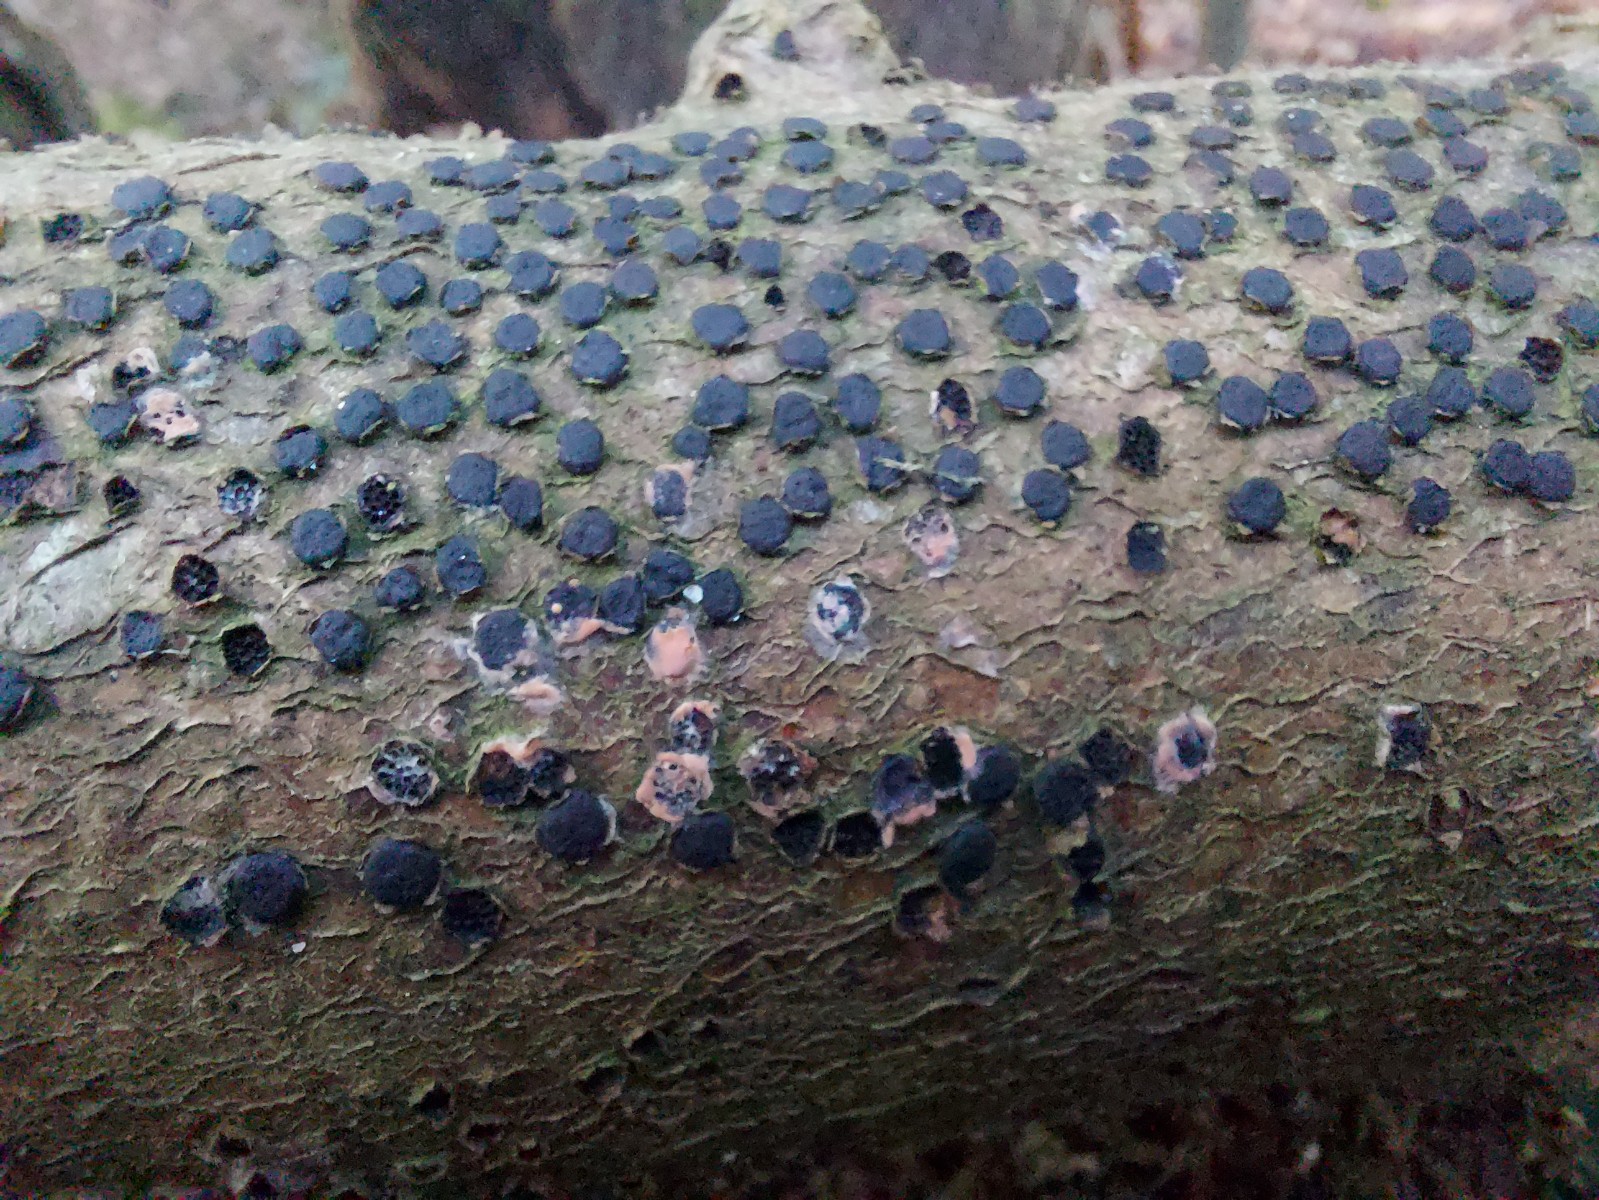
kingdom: Fungi
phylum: Ascomycota
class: Sordariomycetes
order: Xylariales
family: Diatrypaceae
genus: Diatrype
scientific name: Diatrype disciformis
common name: kant-kulskorpe
